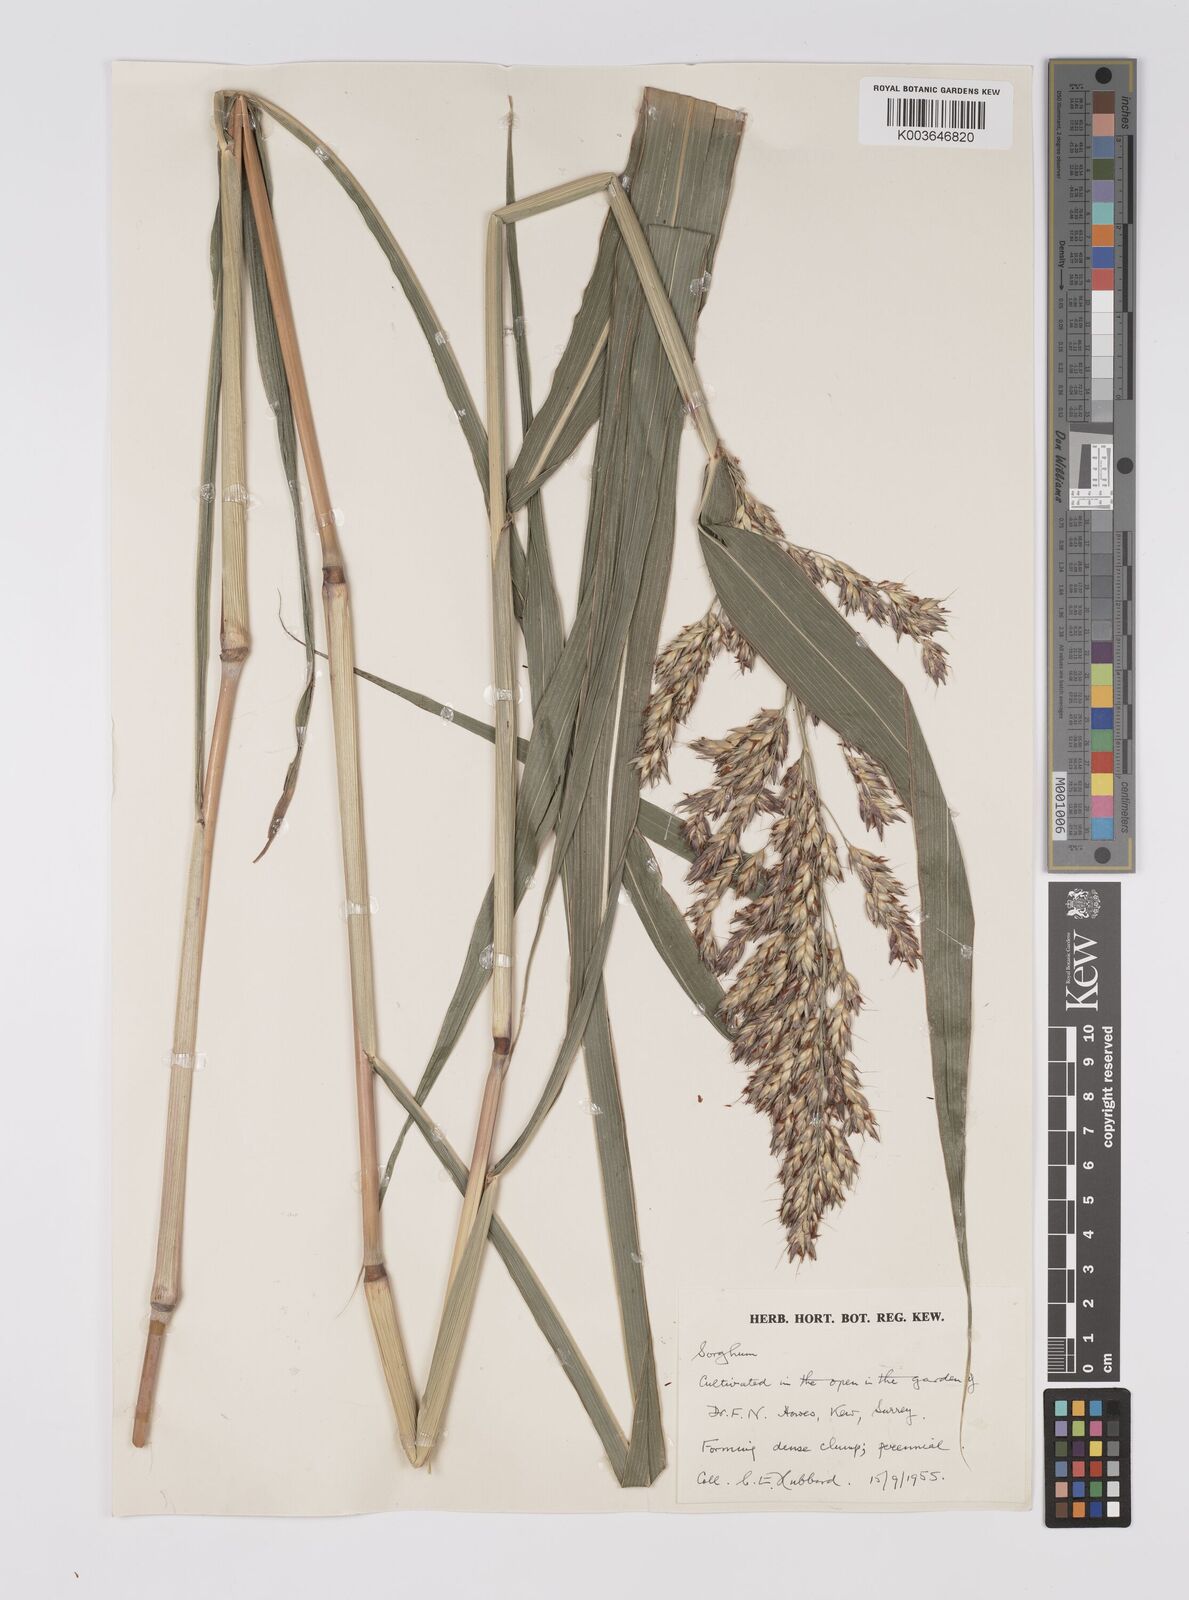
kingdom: Plantae
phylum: Tracheophyta
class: Liliopsida
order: Poales
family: Poaceae
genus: Sorghum
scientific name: Sorghum halepense
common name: Johnson-grass
